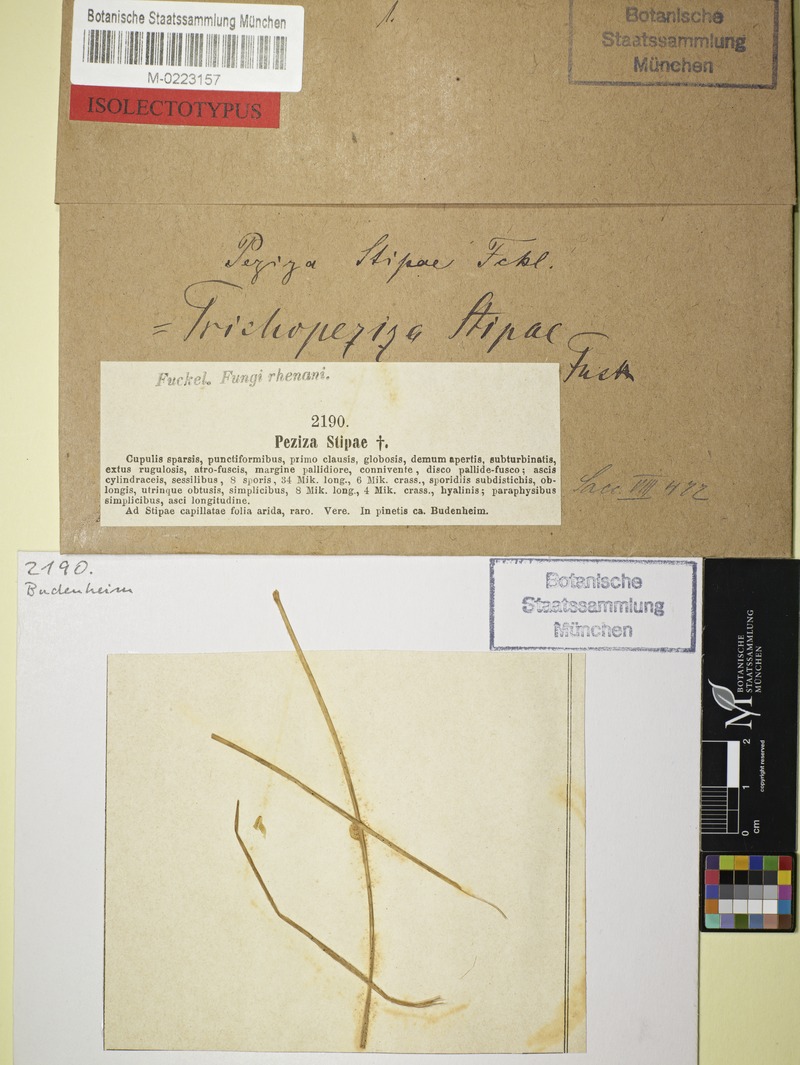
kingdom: Fungi
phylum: Ascomycota
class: Leotiomycetes
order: Helotiales
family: Helotiaceae
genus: Crocicreas
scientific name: Crocicreas gramineum
